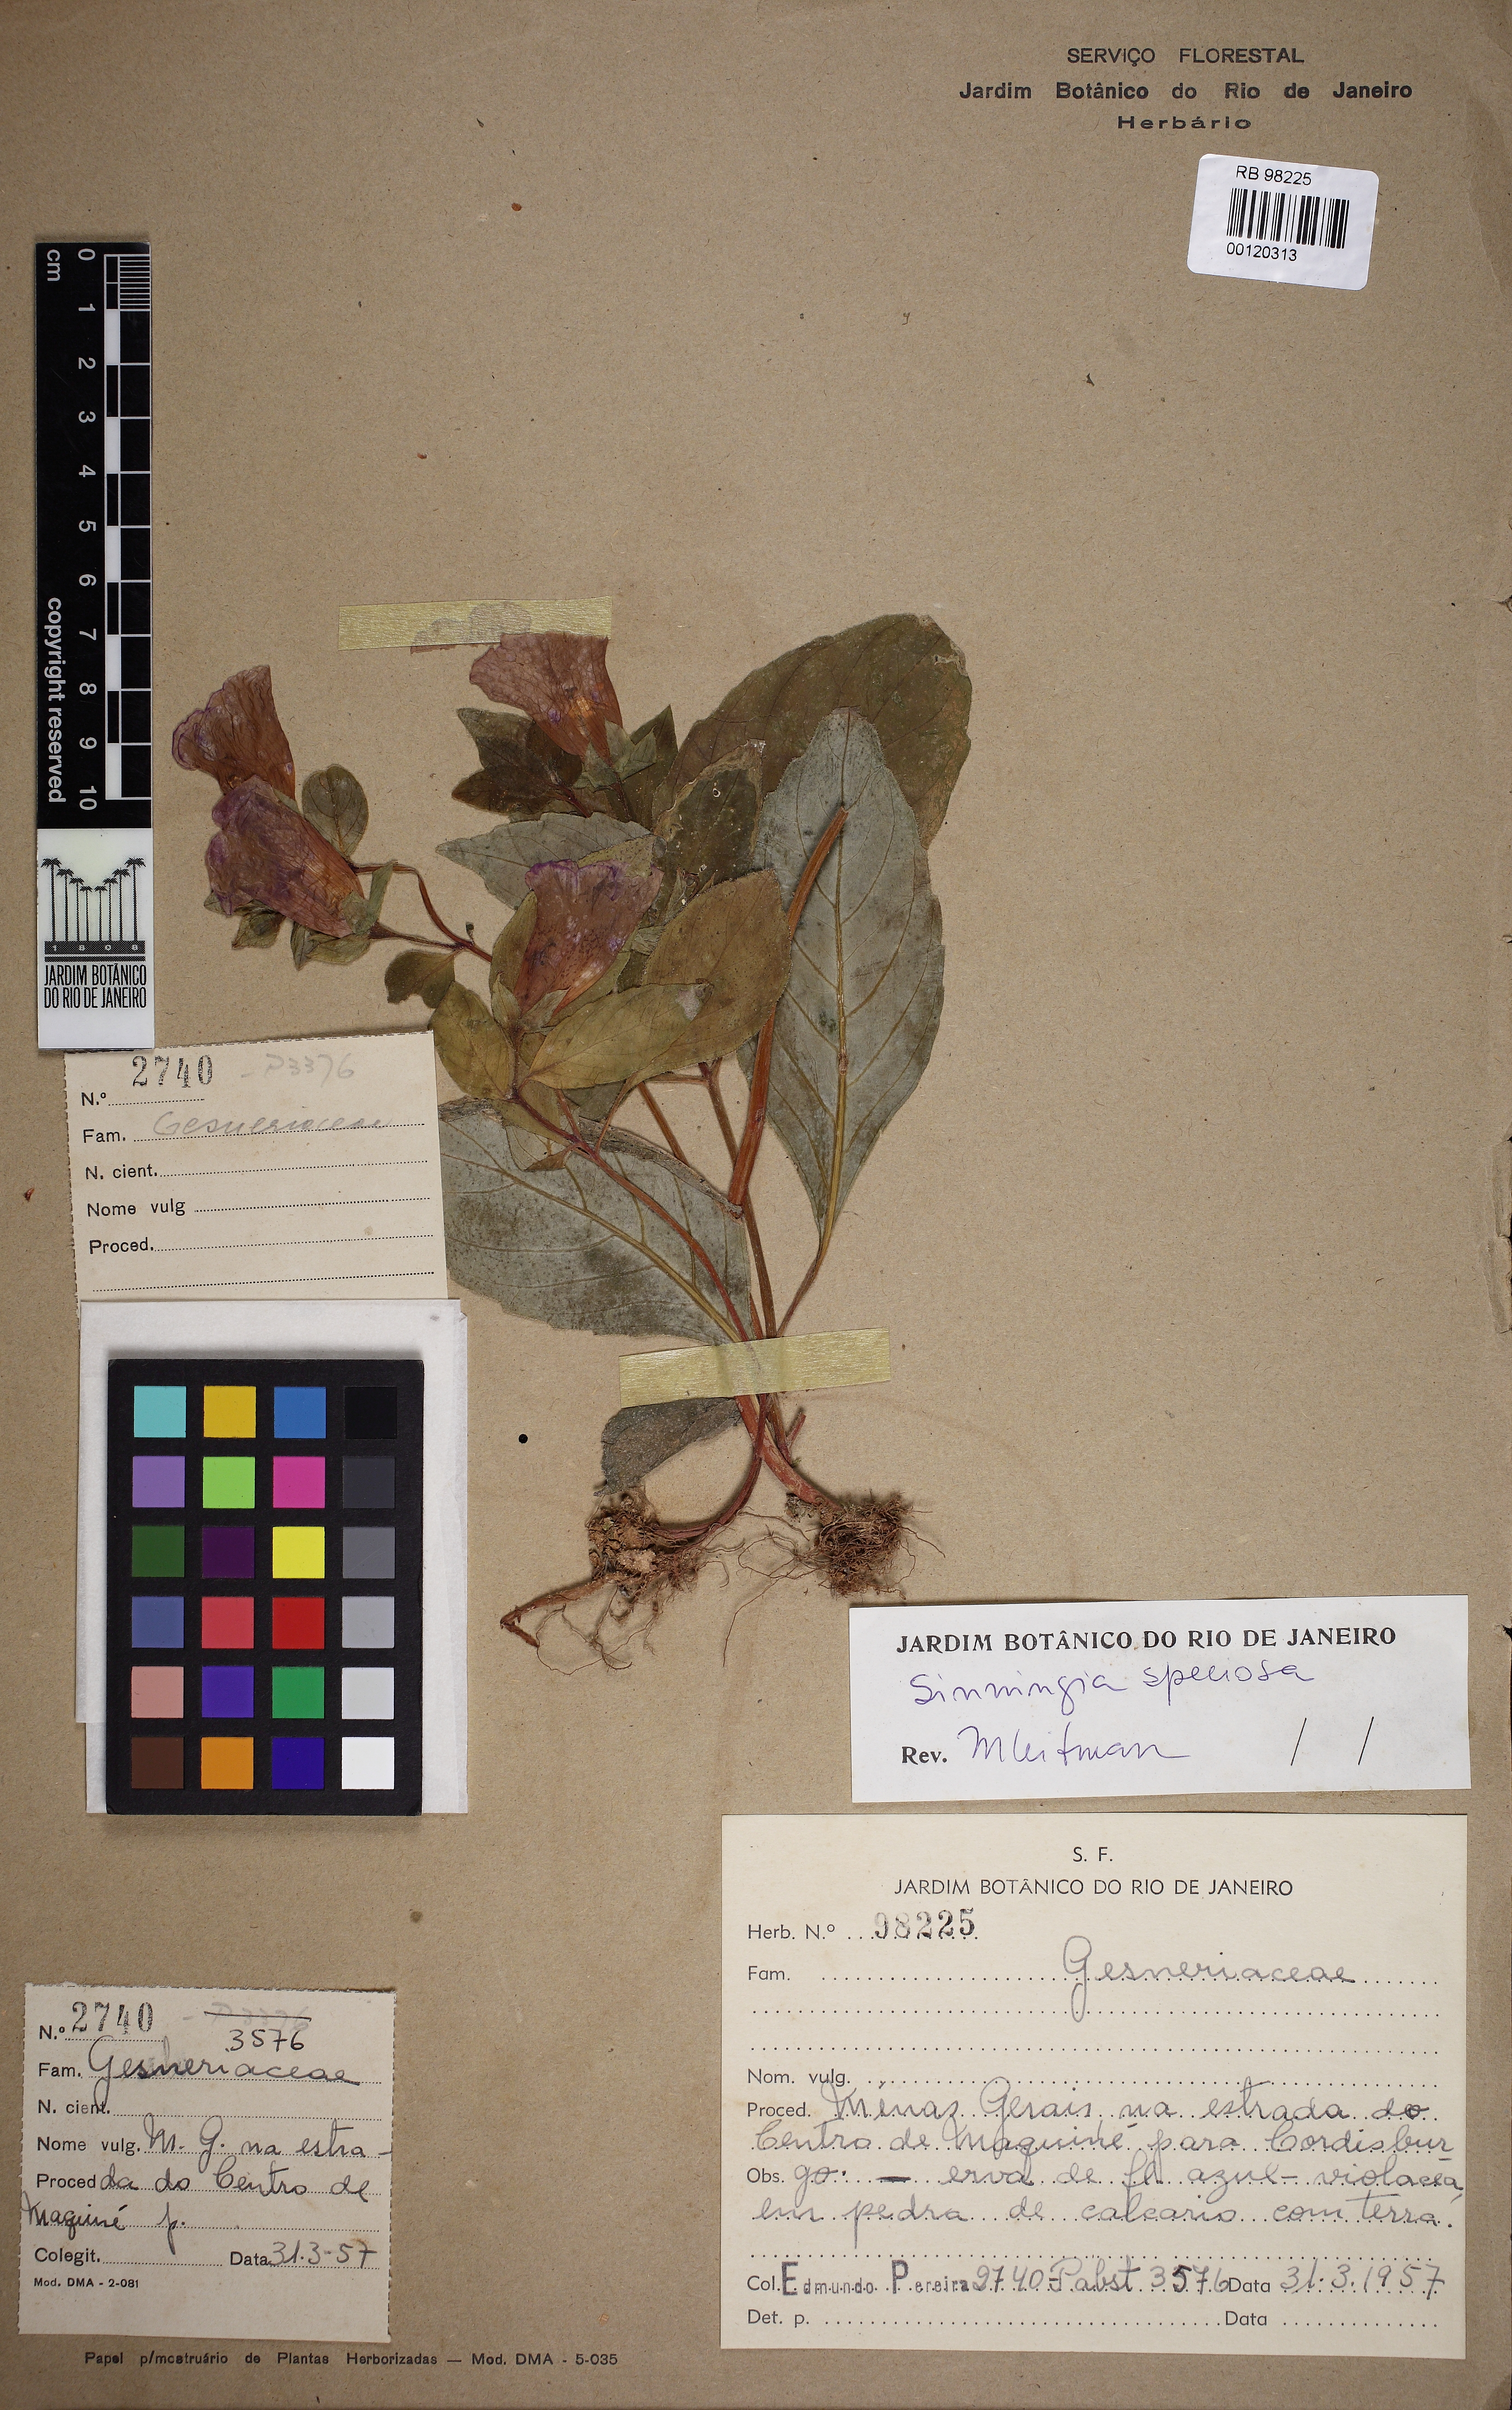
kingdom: Plantae
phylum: Tracheophyta
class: Magnoliopsida
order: Lamiales
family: Gesneriaceae
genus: Sinningia
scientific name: Sinningia speciosa
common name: Brazilian gloxinia
